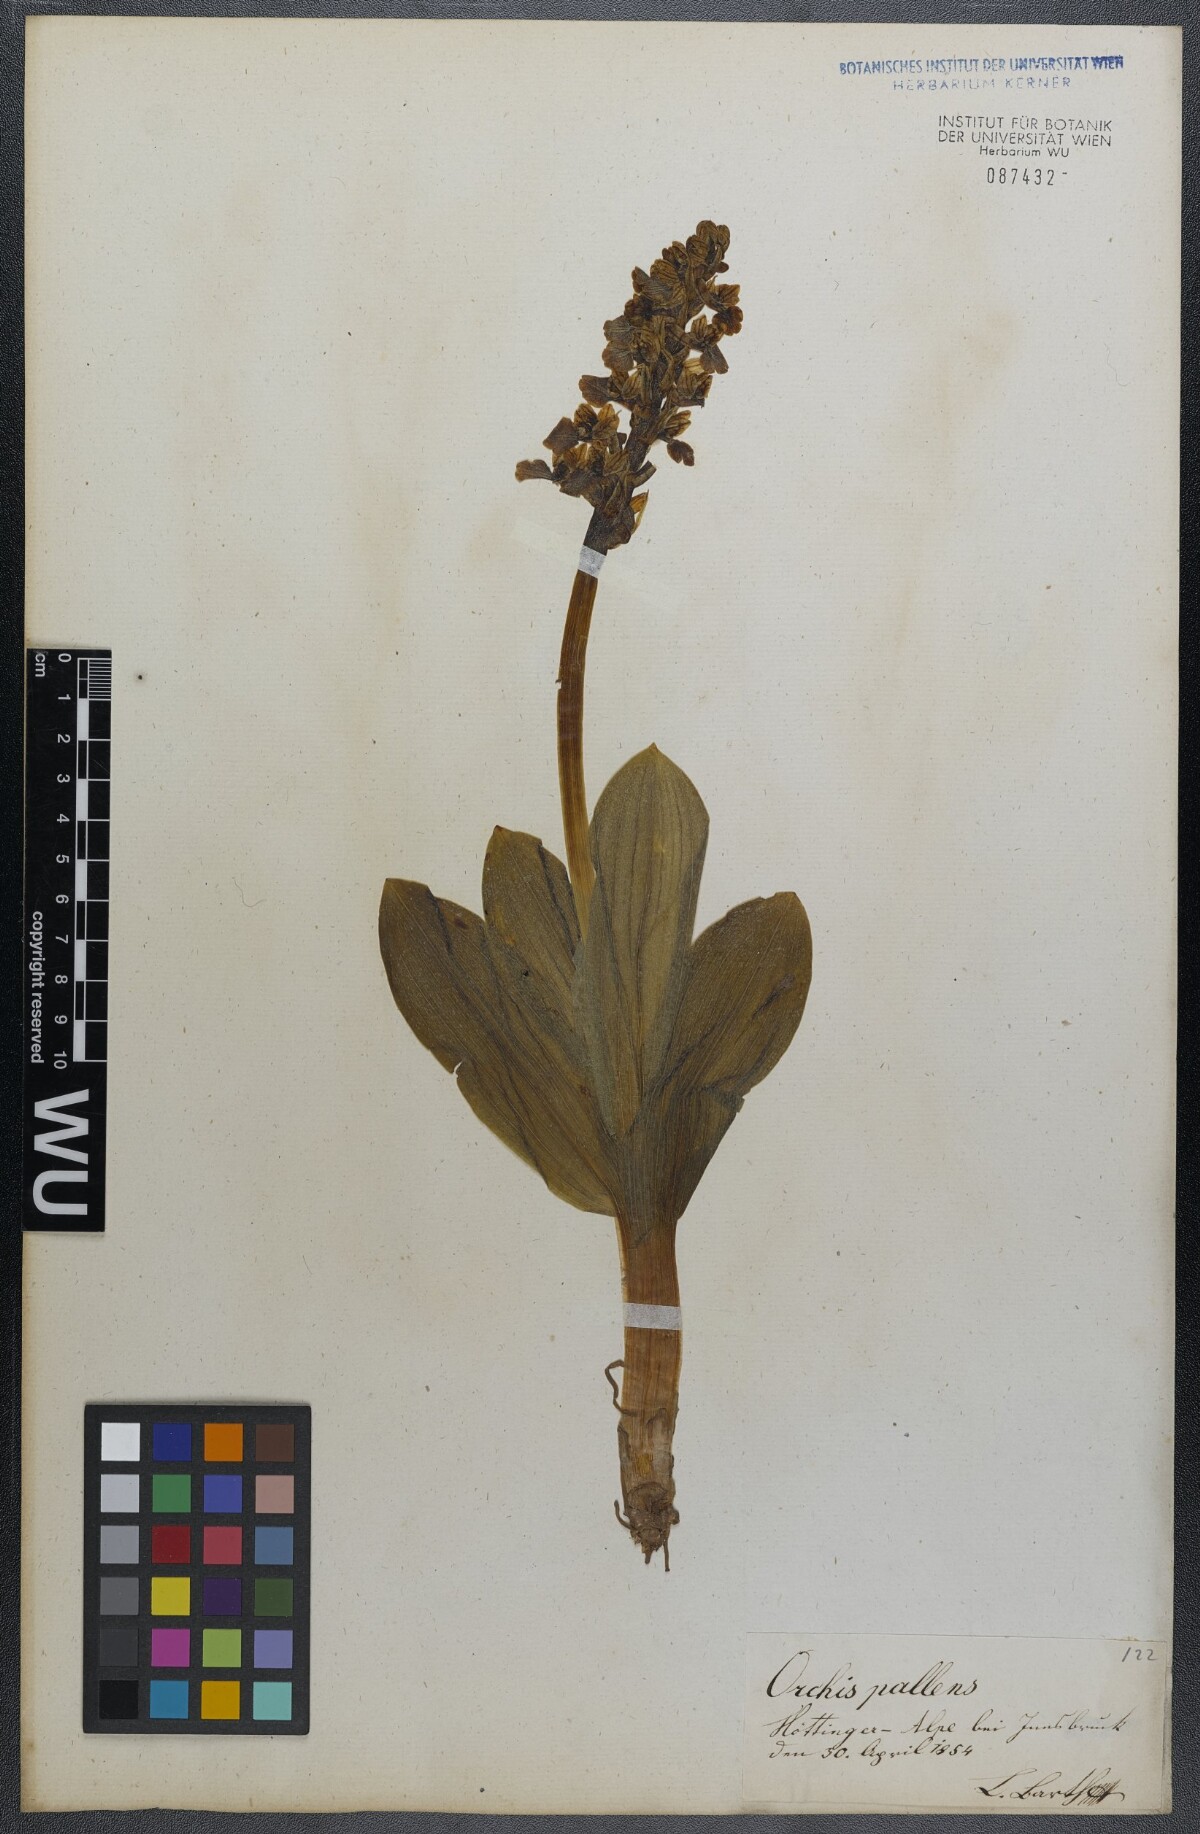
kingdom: Plantae
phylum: Tracheophyta
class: Liliopsida
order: Asparagales
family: Orchidaceae
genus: Orchis
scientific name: Orchis pallens
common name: Pale-flowered orchid
